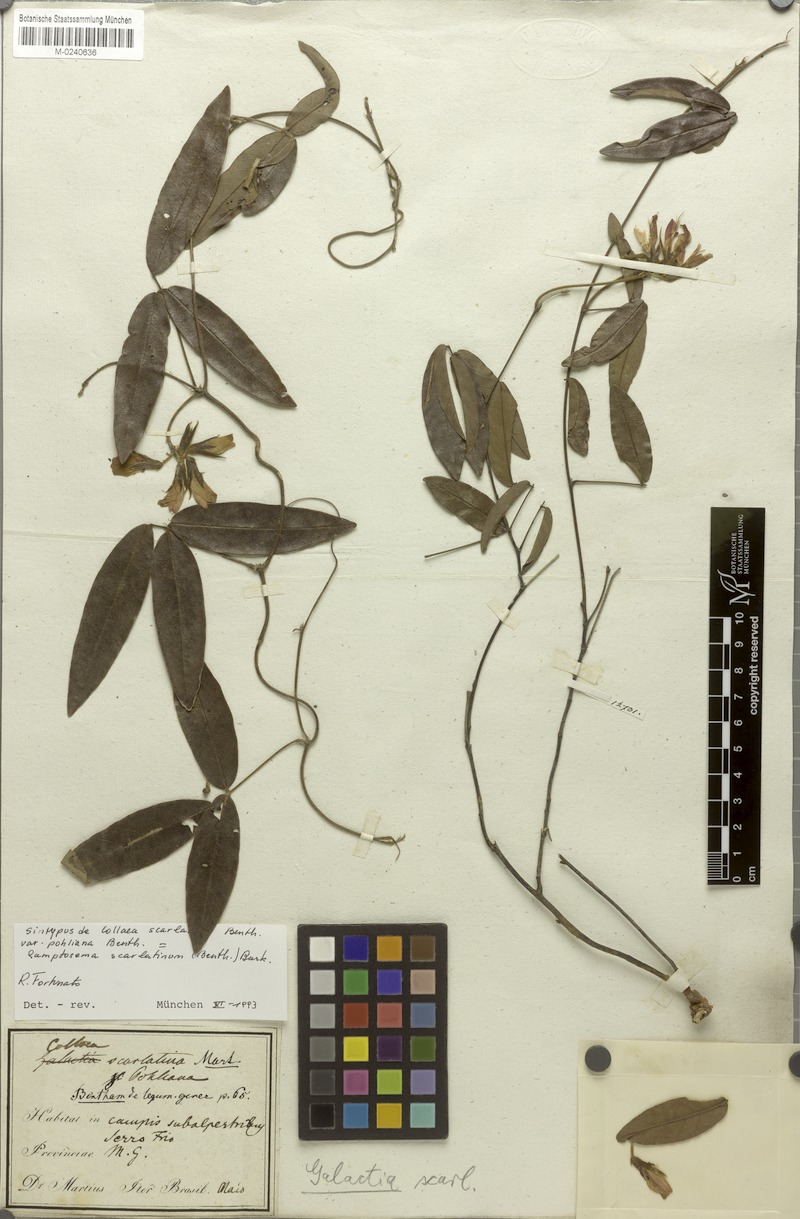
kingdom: Plantae
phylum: Tracheophyta
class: Magnoliopsida
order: Fabales
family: Fabaceae
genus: Betencourtia
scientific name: Betencourtia scarlatina
